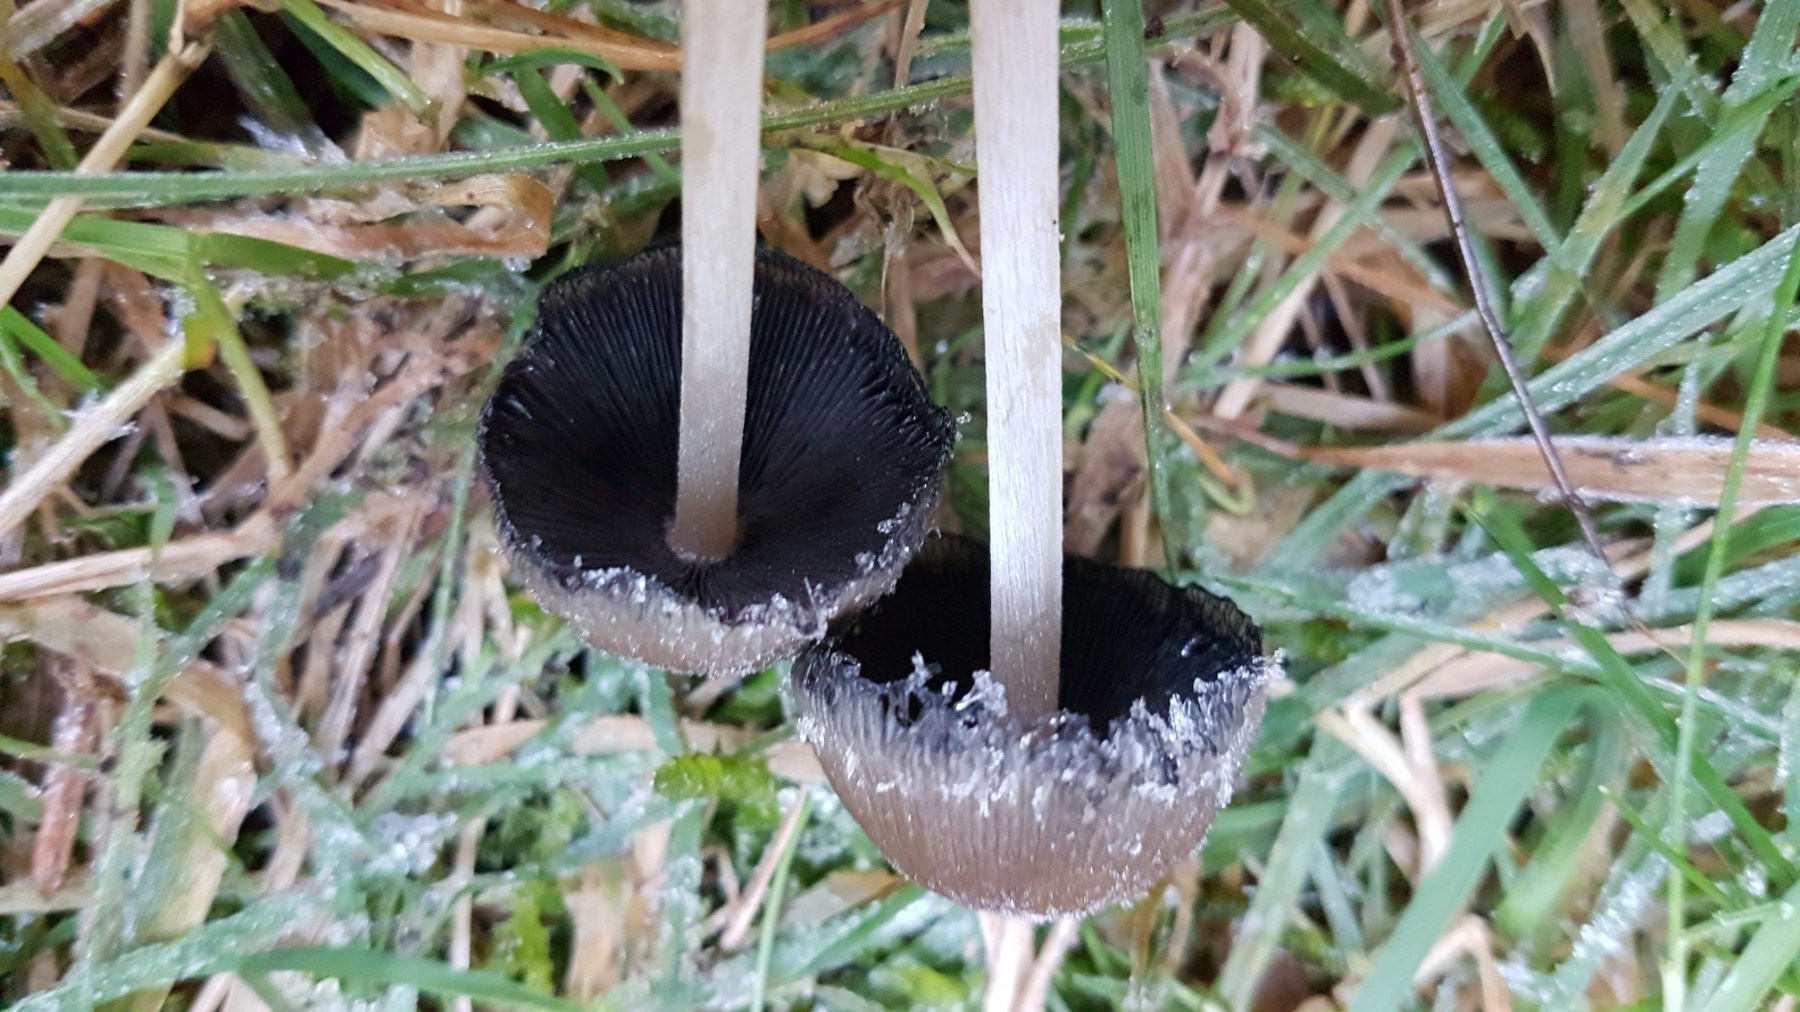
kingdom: Fungi
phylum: Basidiomycota
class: Agaricomycetes
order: Agaricales
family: Psathyrellaceae
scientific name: Psathyrellaceae
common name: mørkhatfamilien
